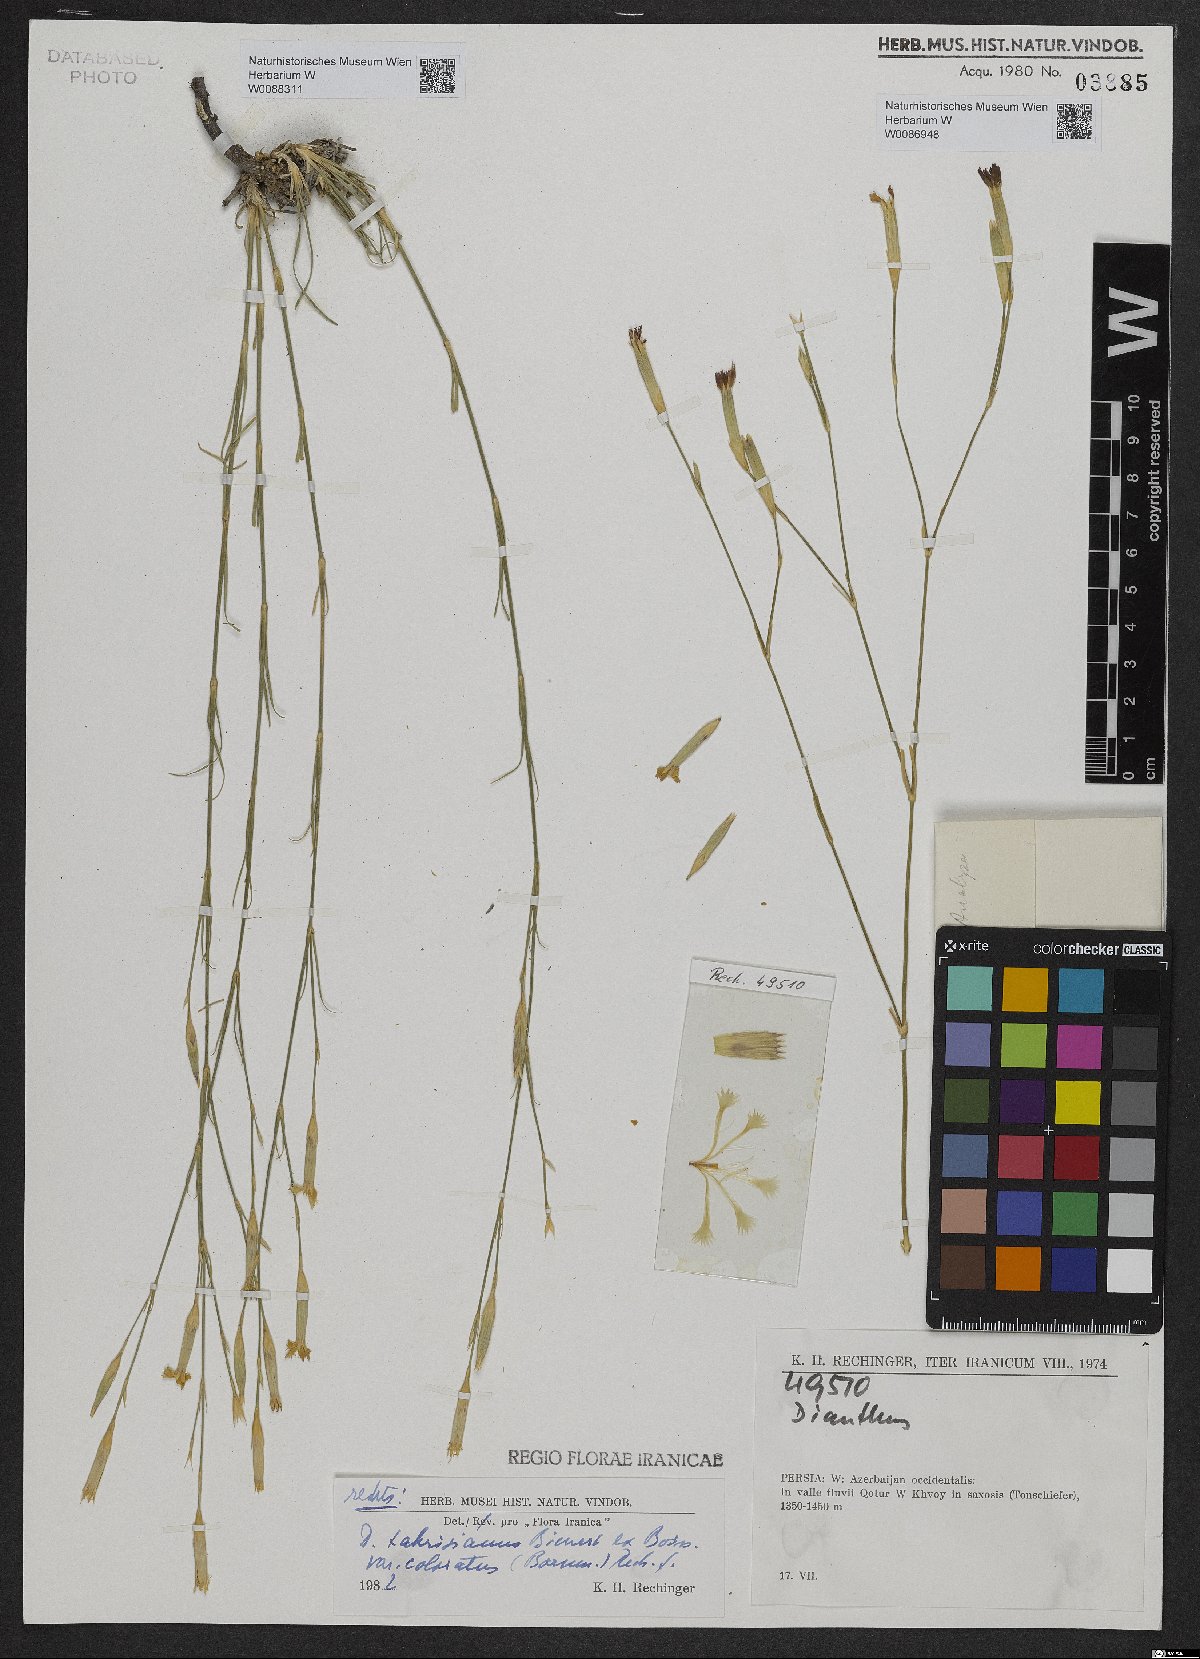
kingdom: Plantae
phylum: Tracheophyta
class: Magnoliopsida
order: Caryophyllales
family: Caryophyllaceae
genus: Dianthus
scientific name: Dianthus
